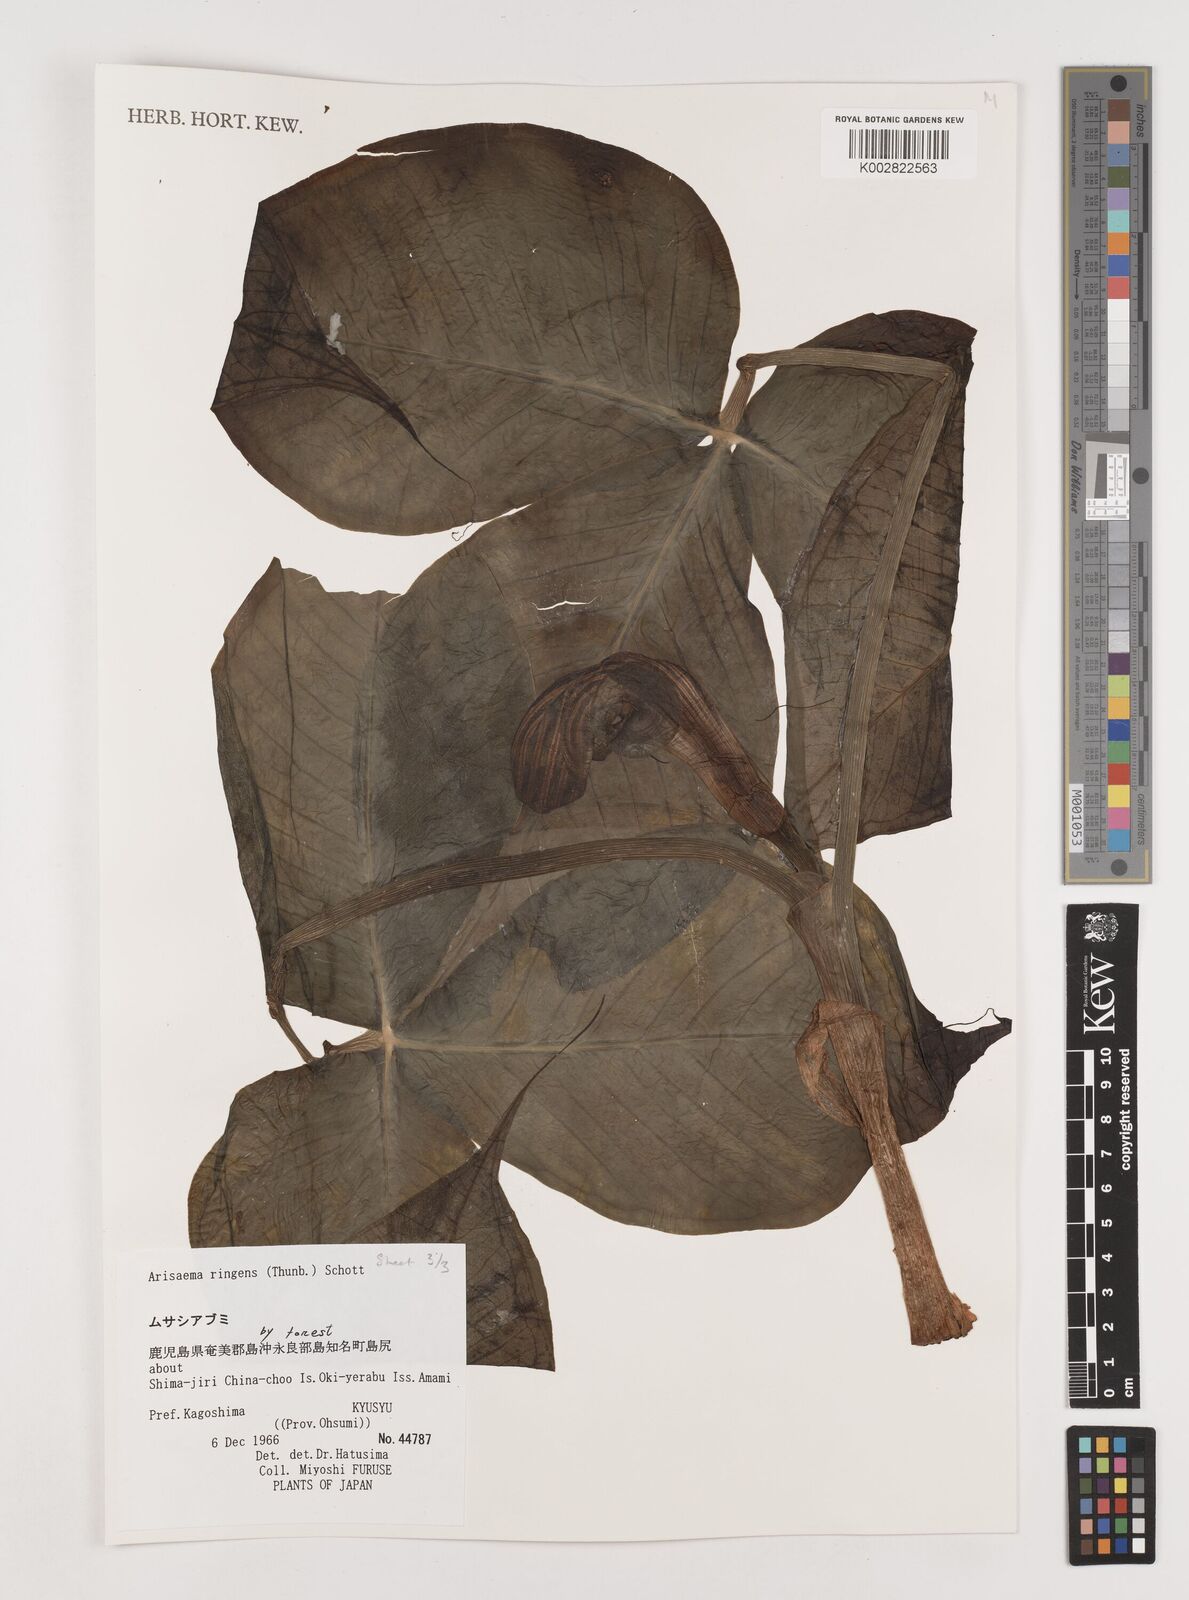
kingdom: Plantae
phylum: Tracheophyta
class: Liliopsida
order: Alismatales
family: Araceae
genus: Arisaema
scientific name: Arisaema ringens
